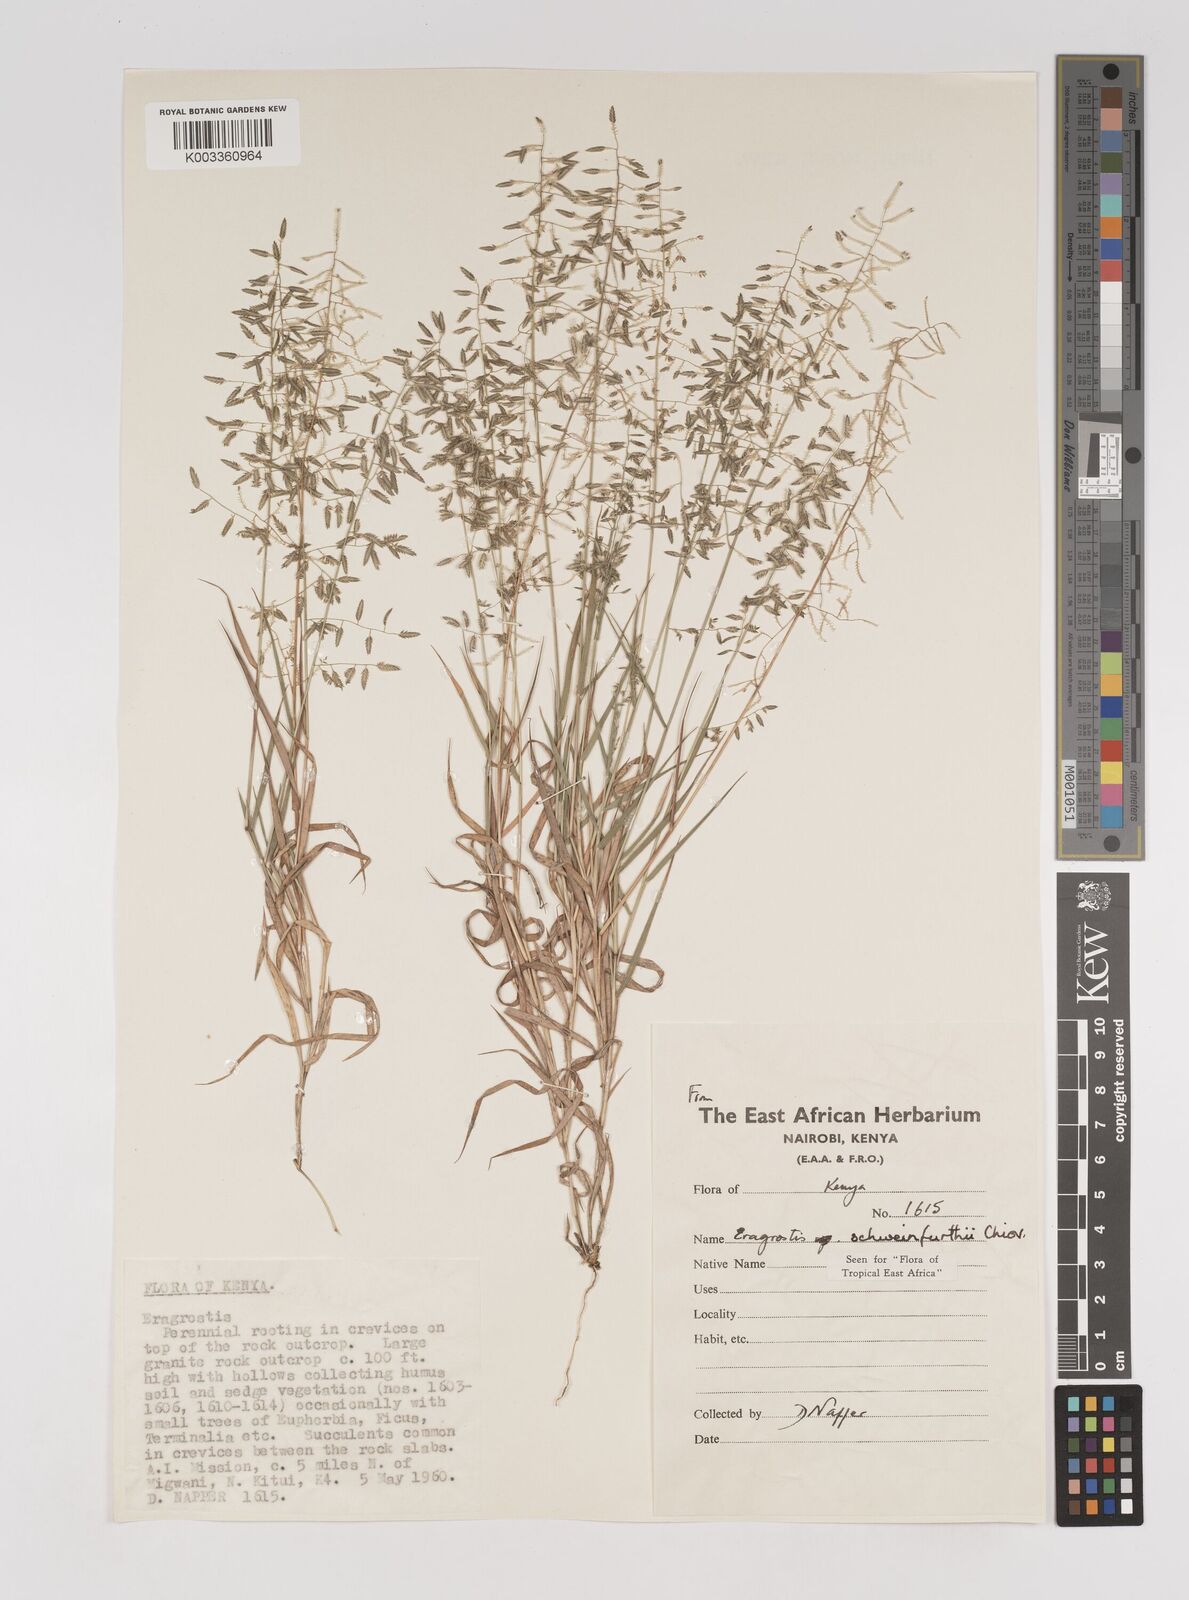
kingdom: Plantae
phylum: Tracheophyta
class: Liliopsida
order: Poales
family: Poaceae
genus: Eragrostis
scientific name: Eragrostis schweinfurthii
